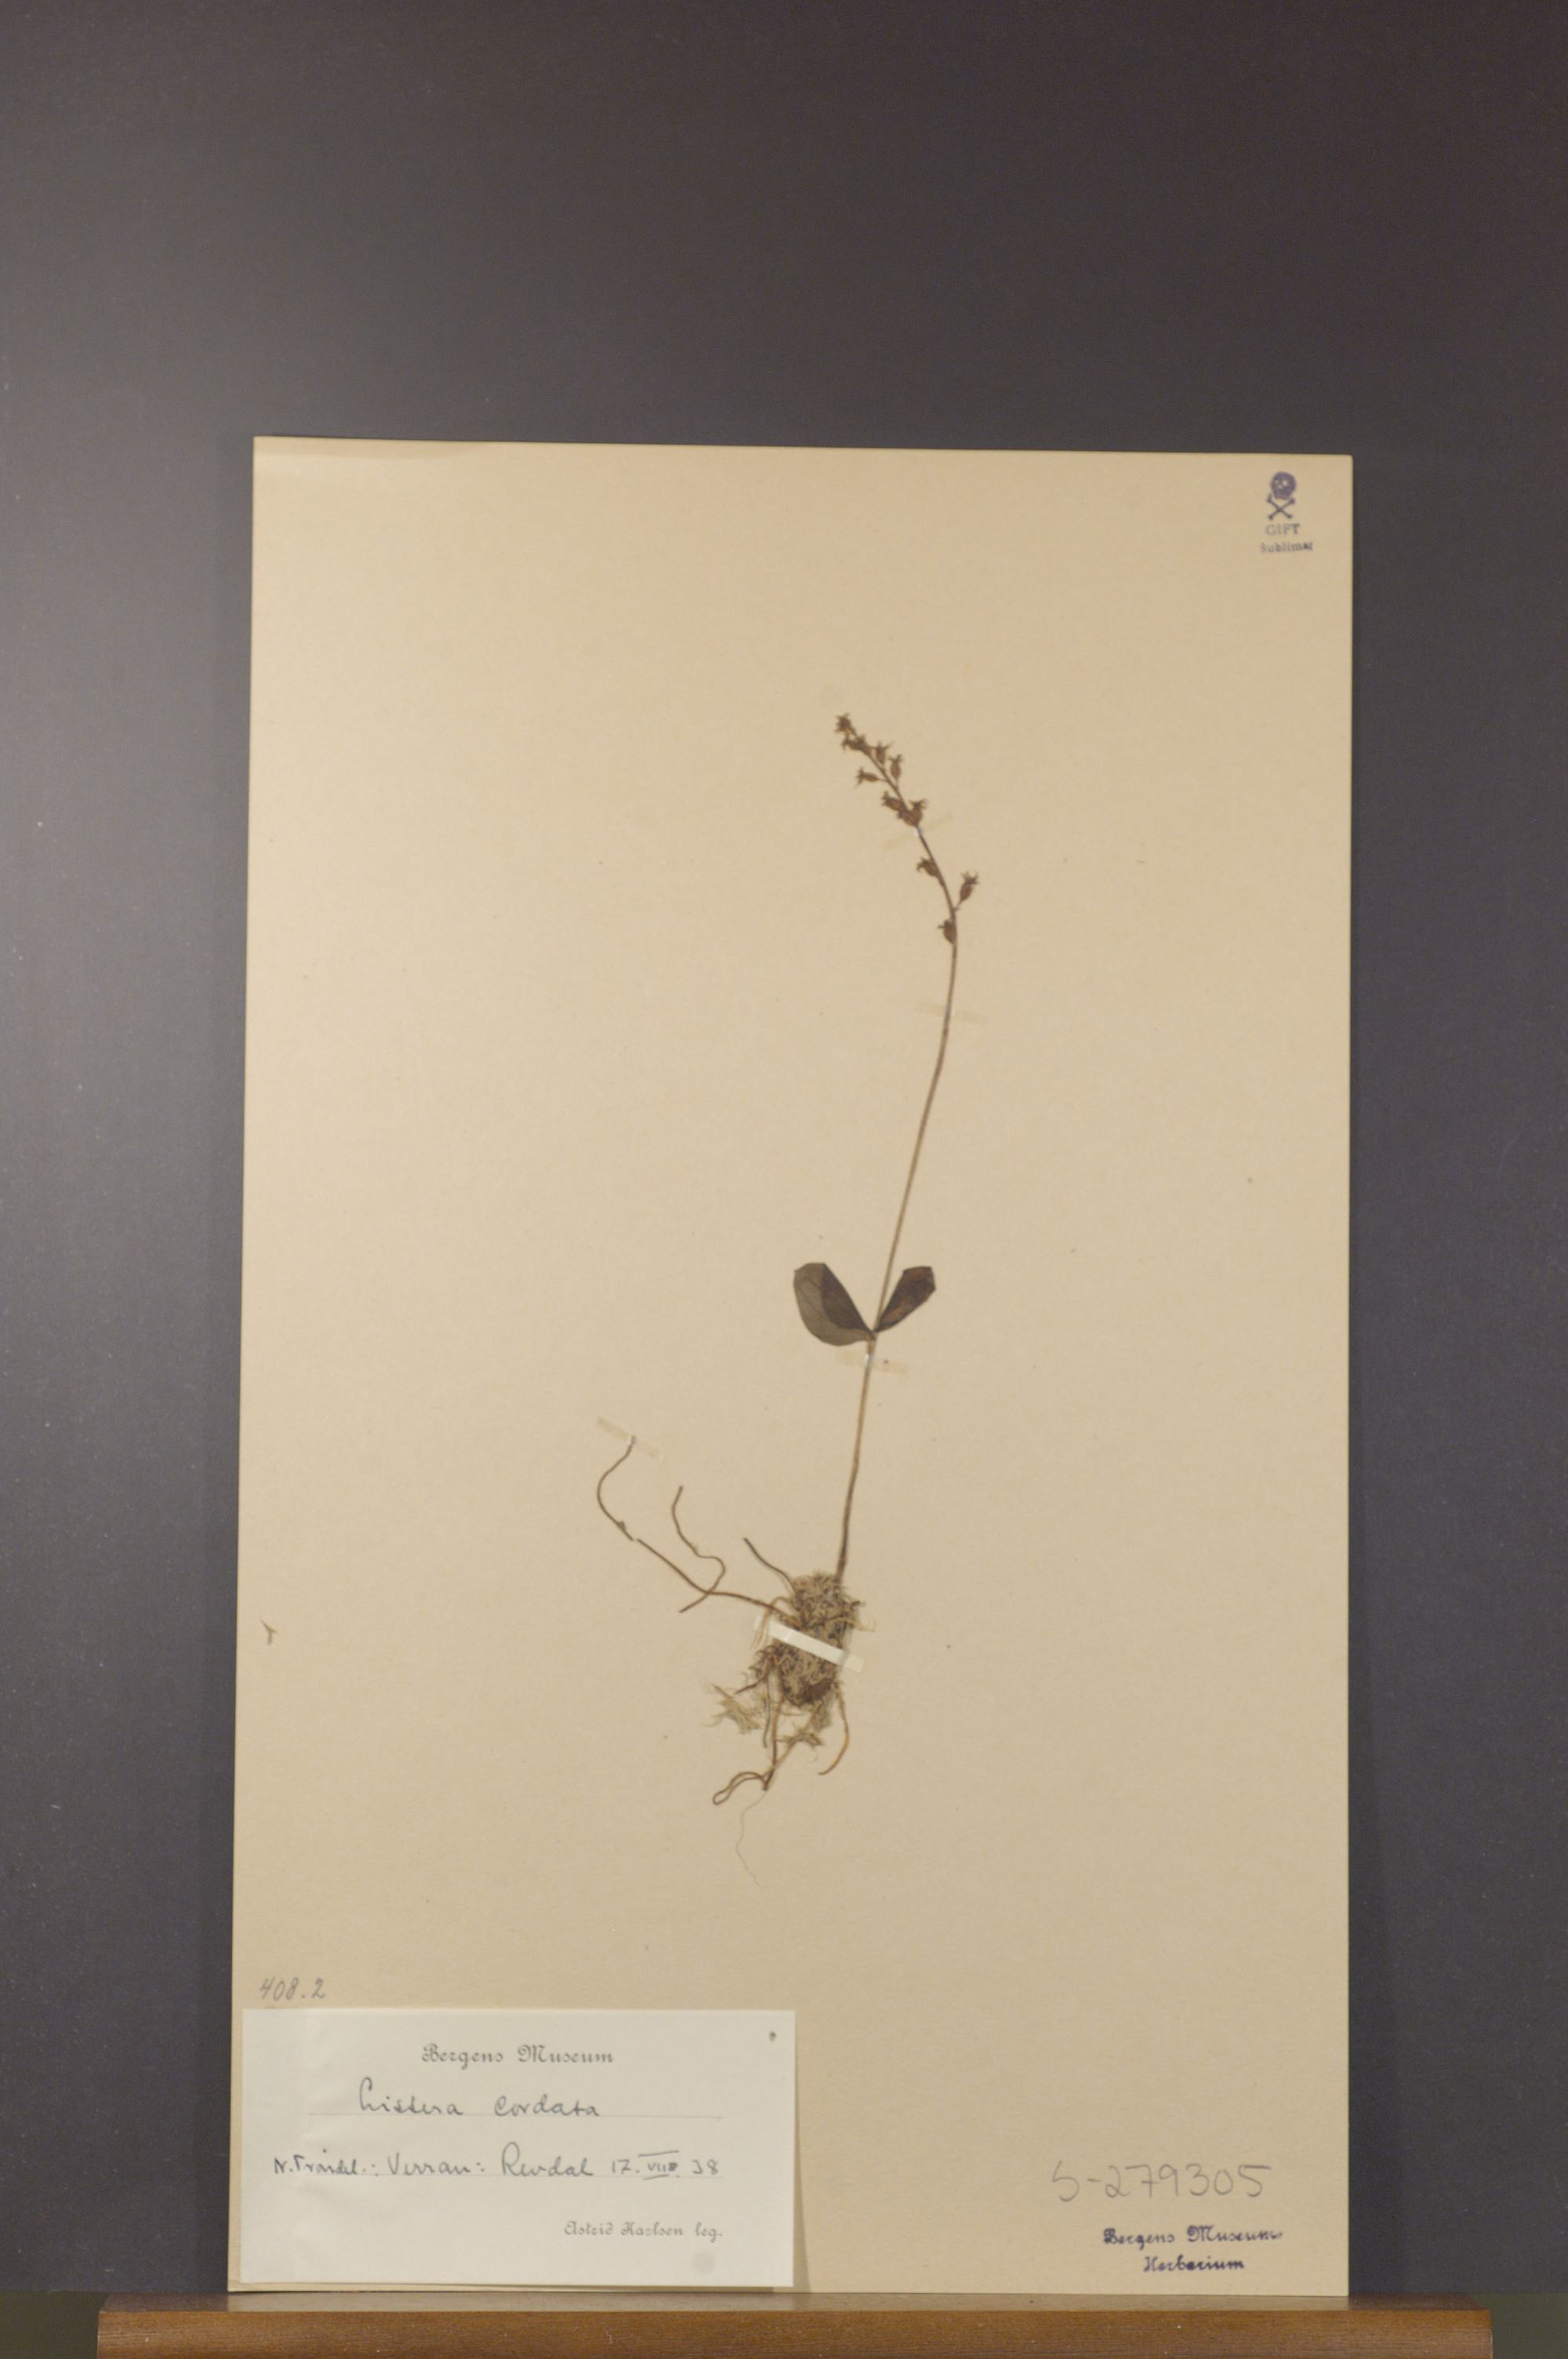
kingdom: Plantae
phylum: Tracheophyta
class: Liliopsida
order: Asparagales
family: Orchidaceae
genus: Neottia
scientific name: Neottia cordata
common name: Lesser twayblade
